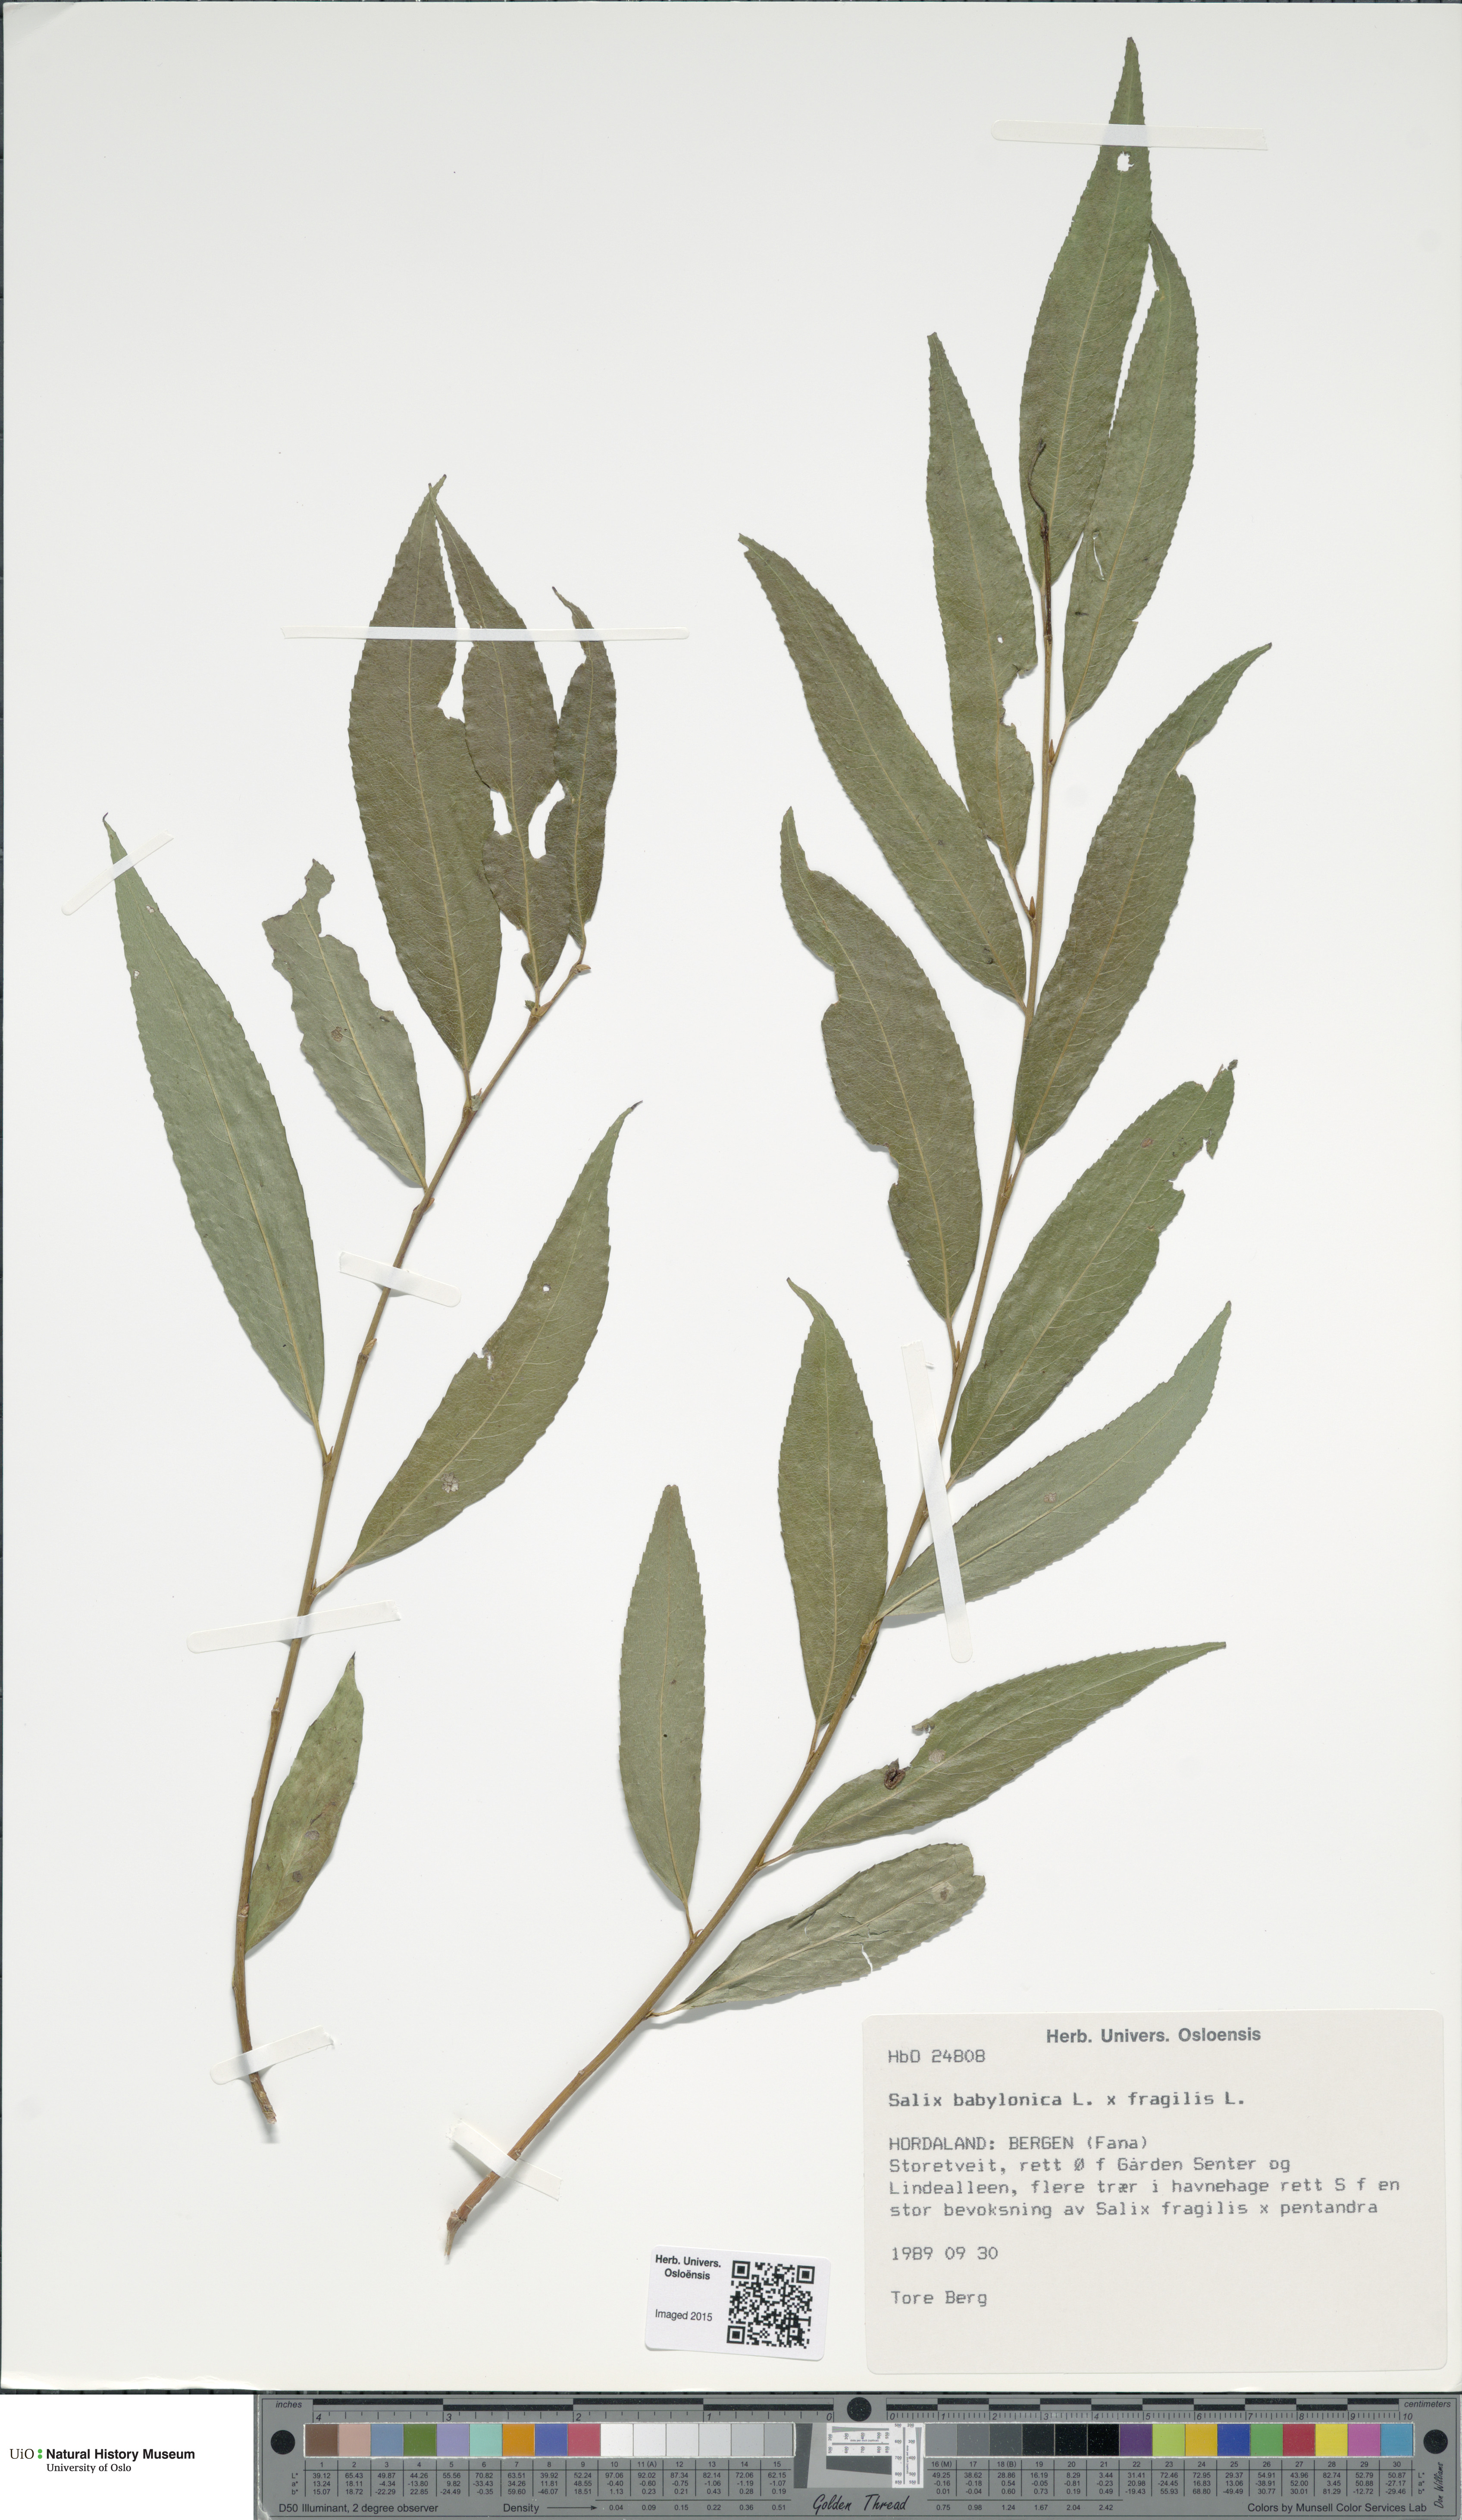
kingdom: Plantae
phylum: Tracheophyta
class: Magnoliopsida
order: Malpighiales
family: Salicaceae
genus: Salix
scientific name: Salix
